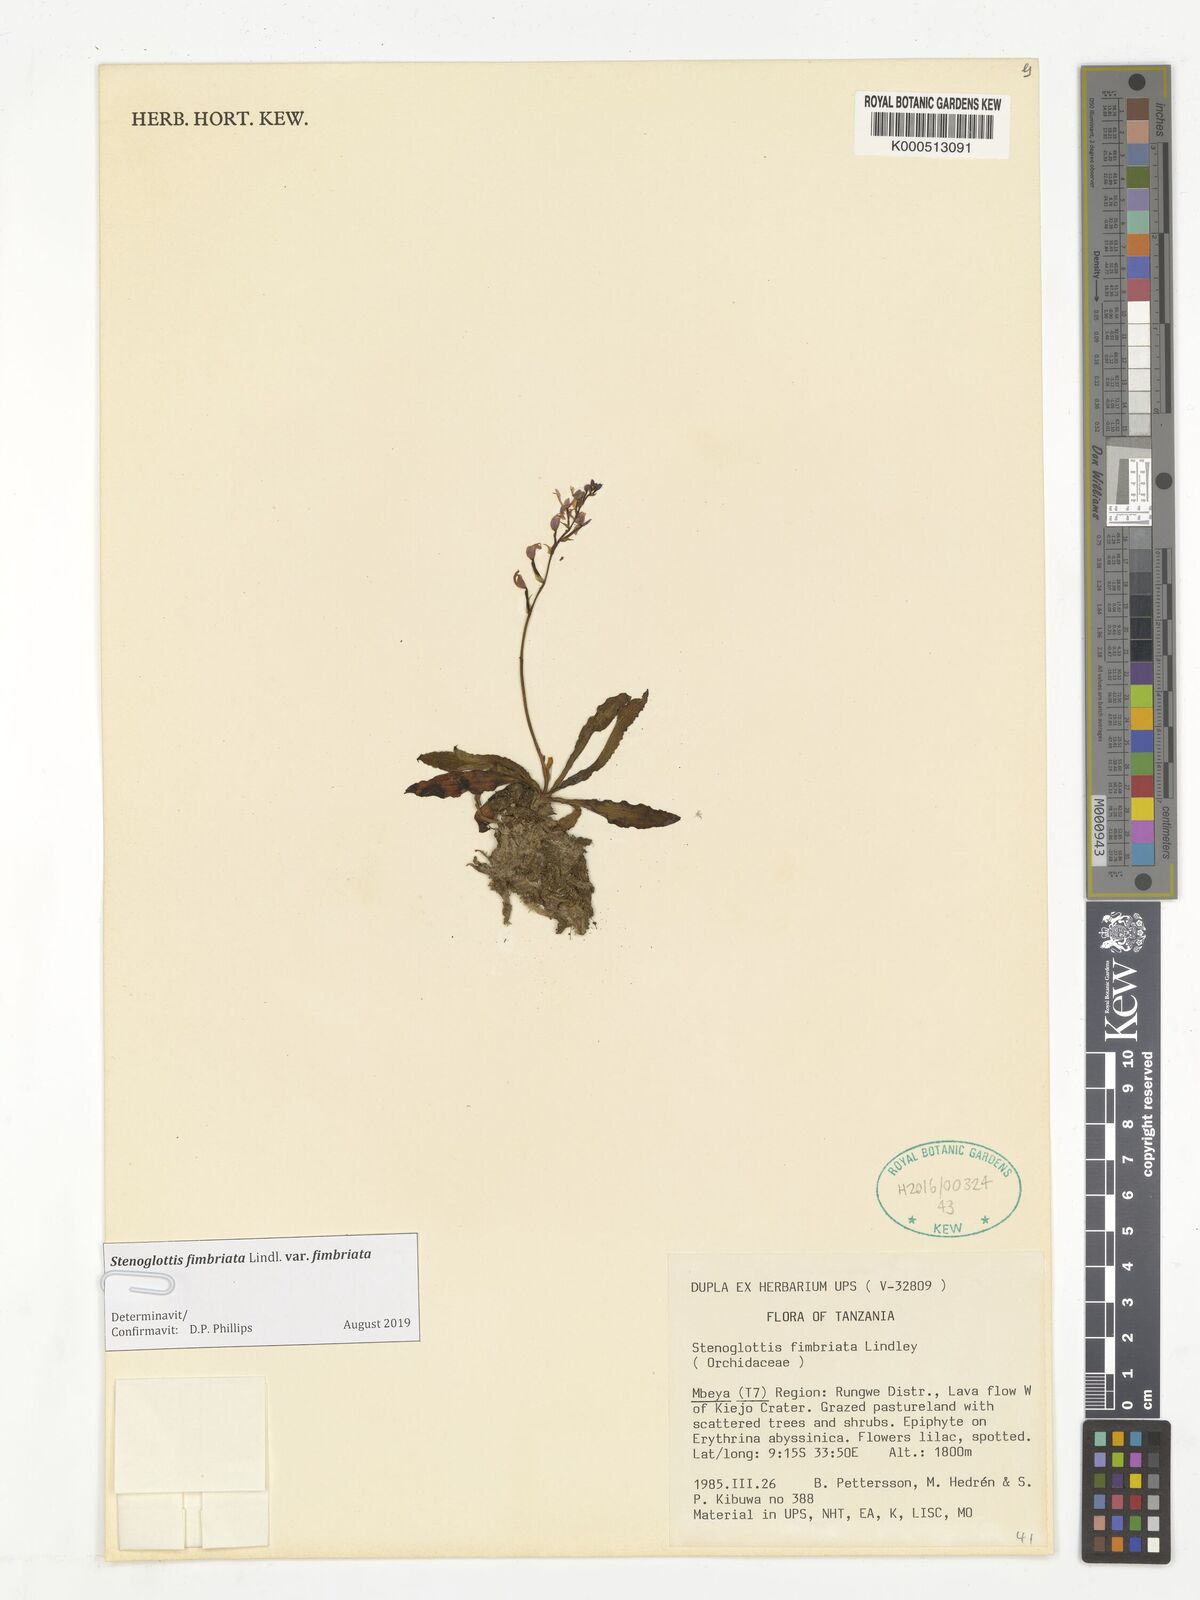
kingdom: Plantae
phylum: Tracheophyta
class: Liliopsida
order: Asparagales
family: Orchidaceae
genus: Stenoglottis
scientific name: Stenoglottis fimbriata
